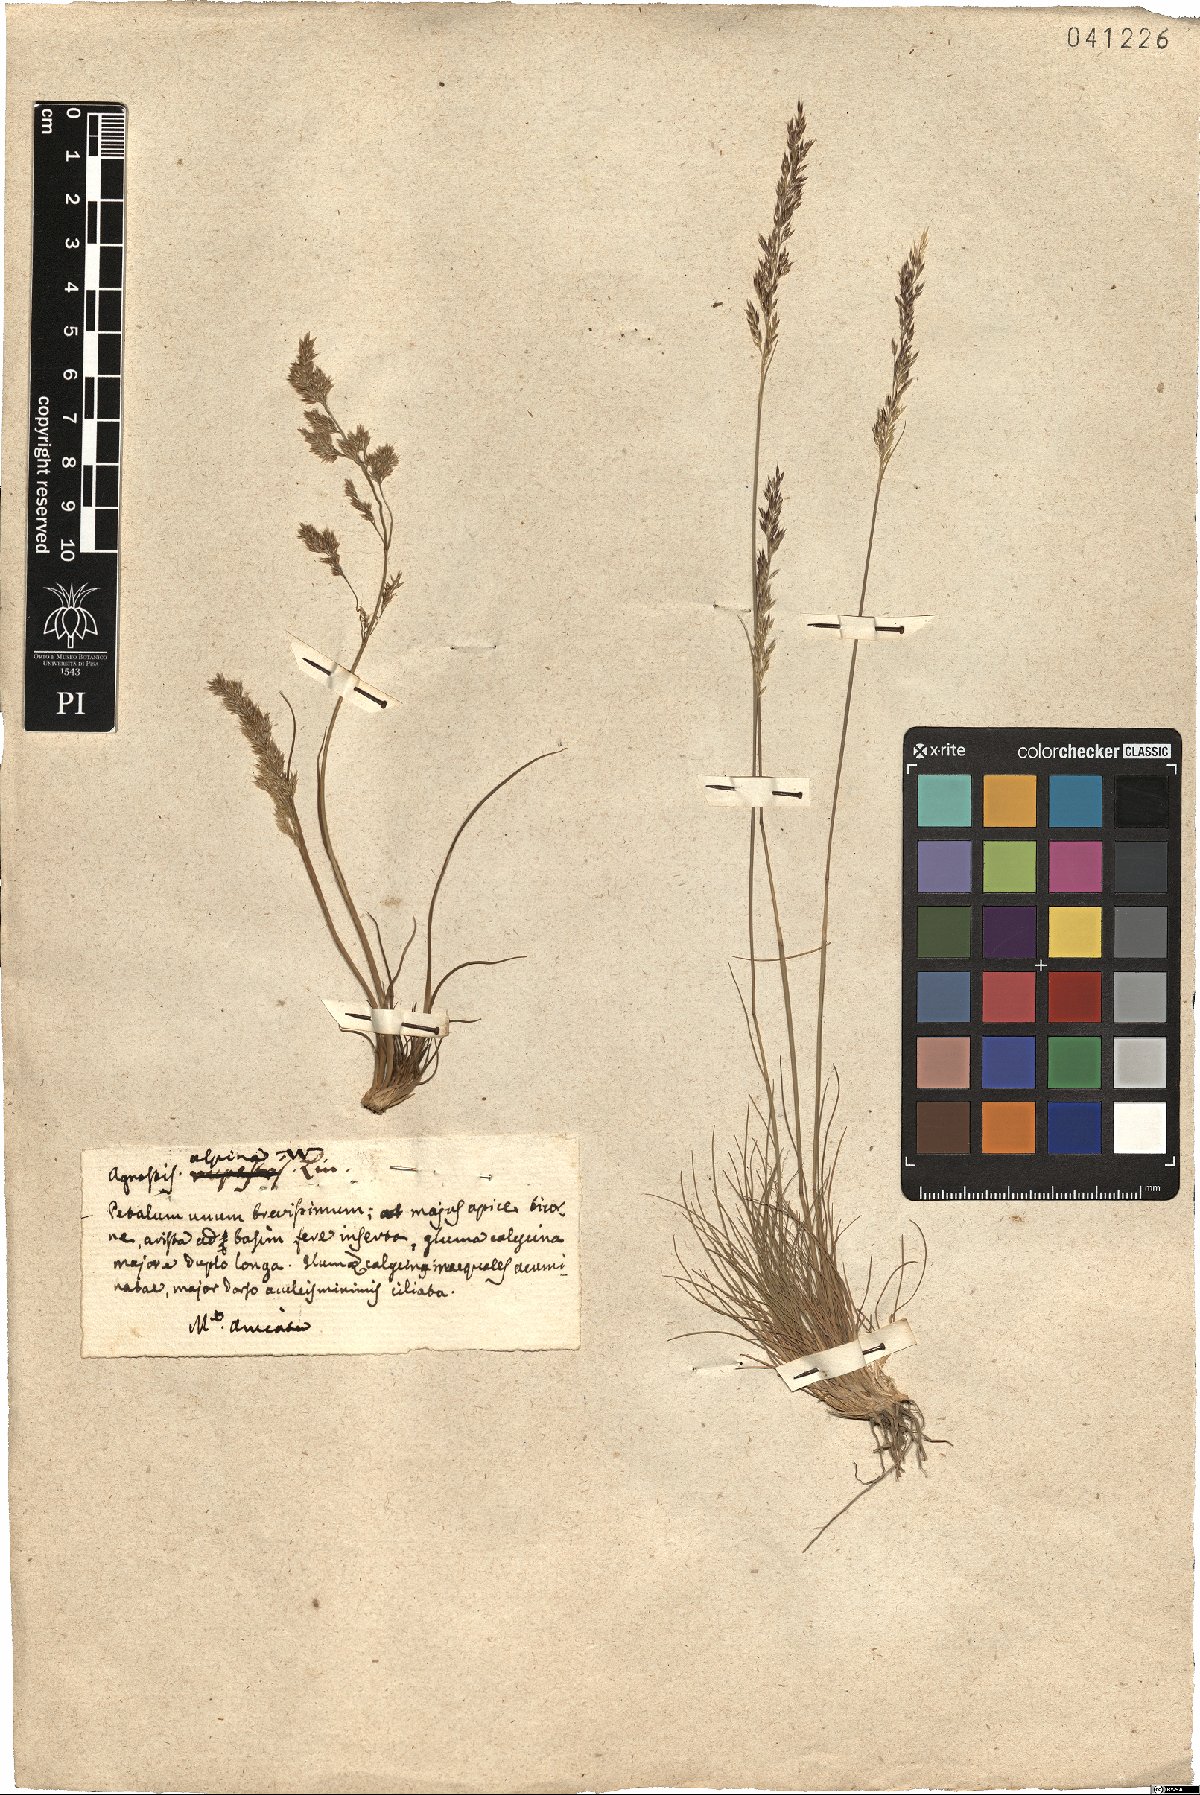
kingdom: Plantae
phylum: Tracheophyta
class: Liliopsida
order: Poales
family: Poaceae
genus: Alpagrostis
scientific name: Alpagrostis alpina
